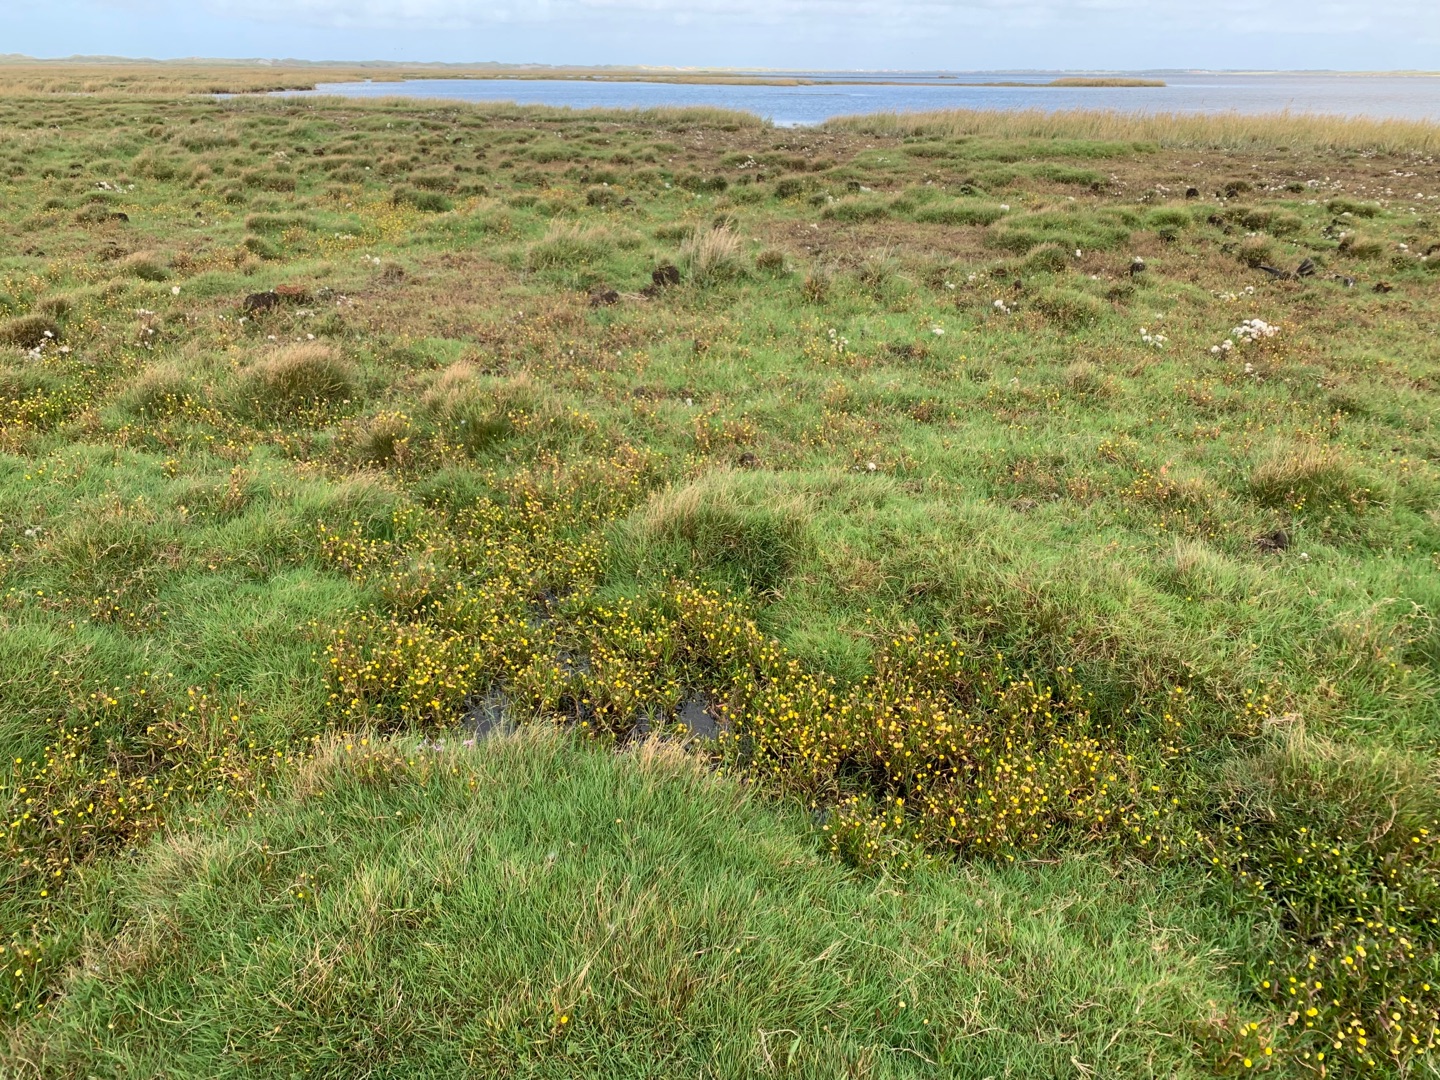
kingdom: Plantae
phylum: Tracheophyta
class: Magnoliopsida
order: Asterales
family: Asteraceae
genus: Cotula
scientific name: Cotula coronopifolia
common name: Firkløft
